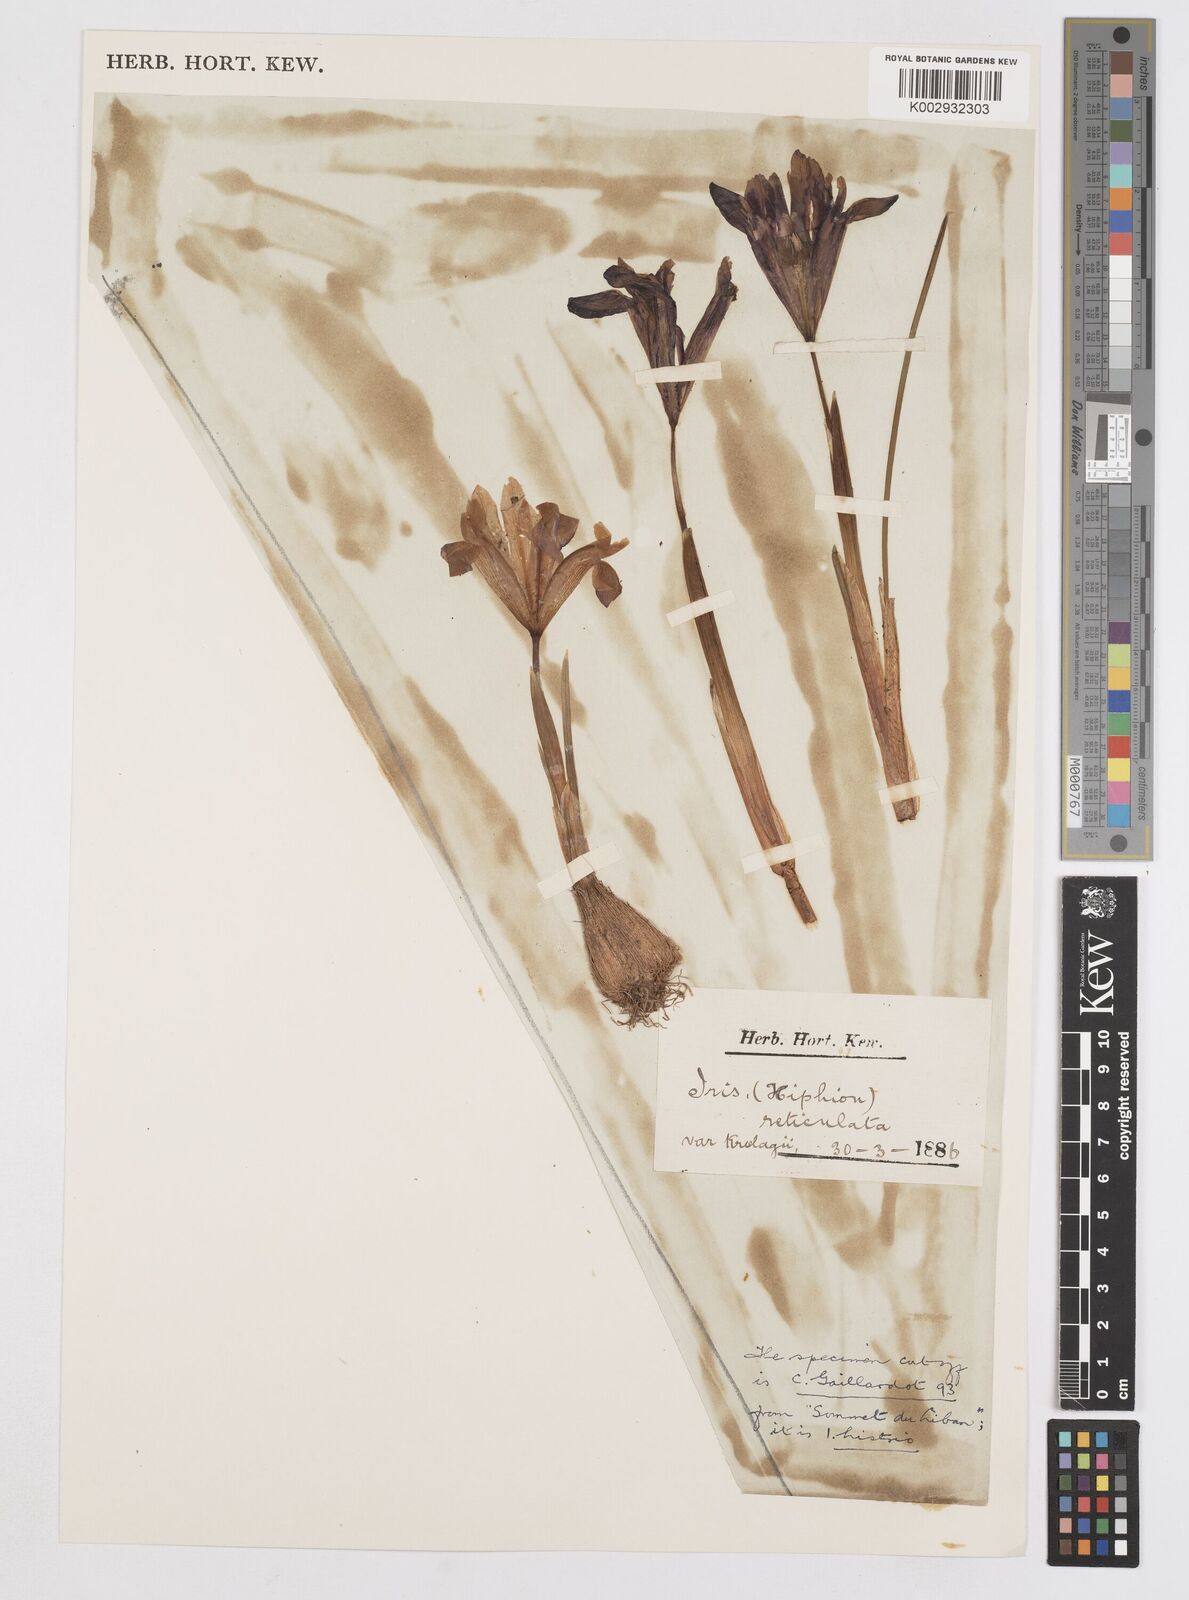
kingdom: Plantae
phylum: Tracheophyta
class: Liliopsida
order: Asparagales
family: Iridaceae
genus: Iris
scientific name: Iris reticulata
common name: Netted iris
